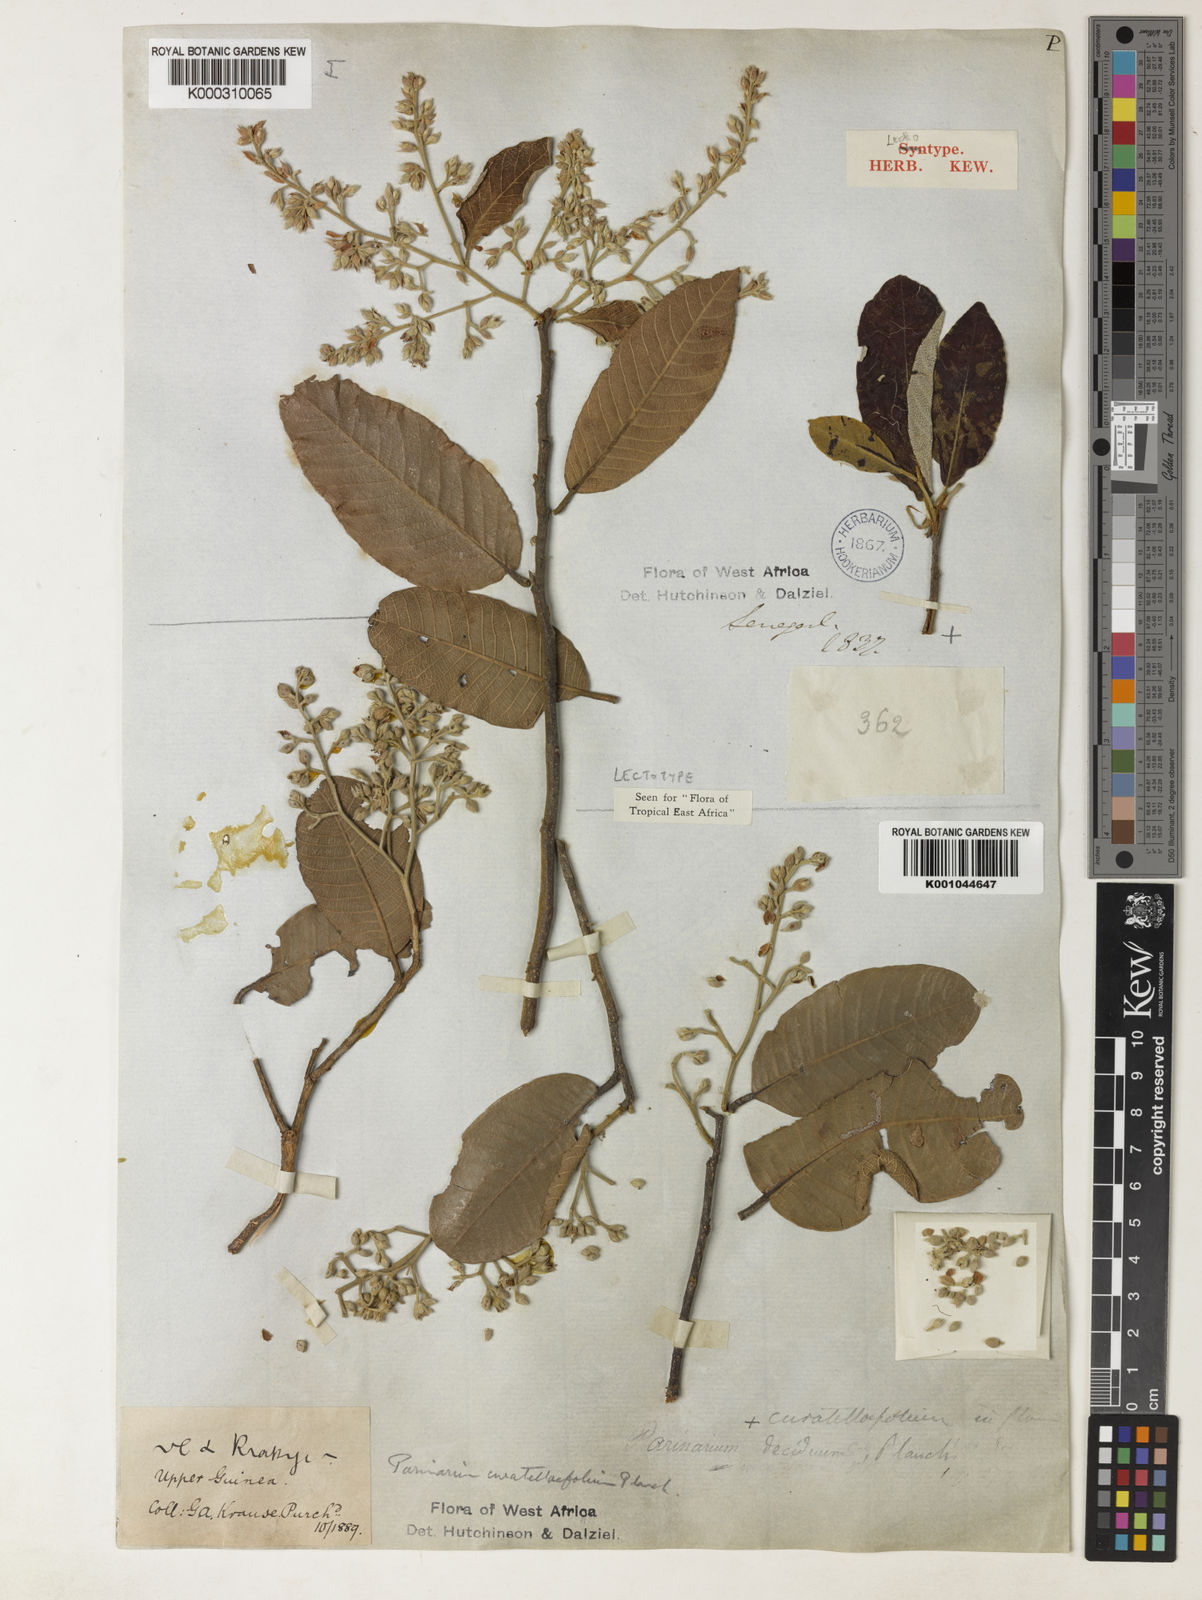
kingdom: Plantae
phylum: Tracheophyta
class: Magnoliopsida
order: Malpighiales
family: Chrysobalanaceae
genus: Parinari
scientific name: Parinari curatellifolia
